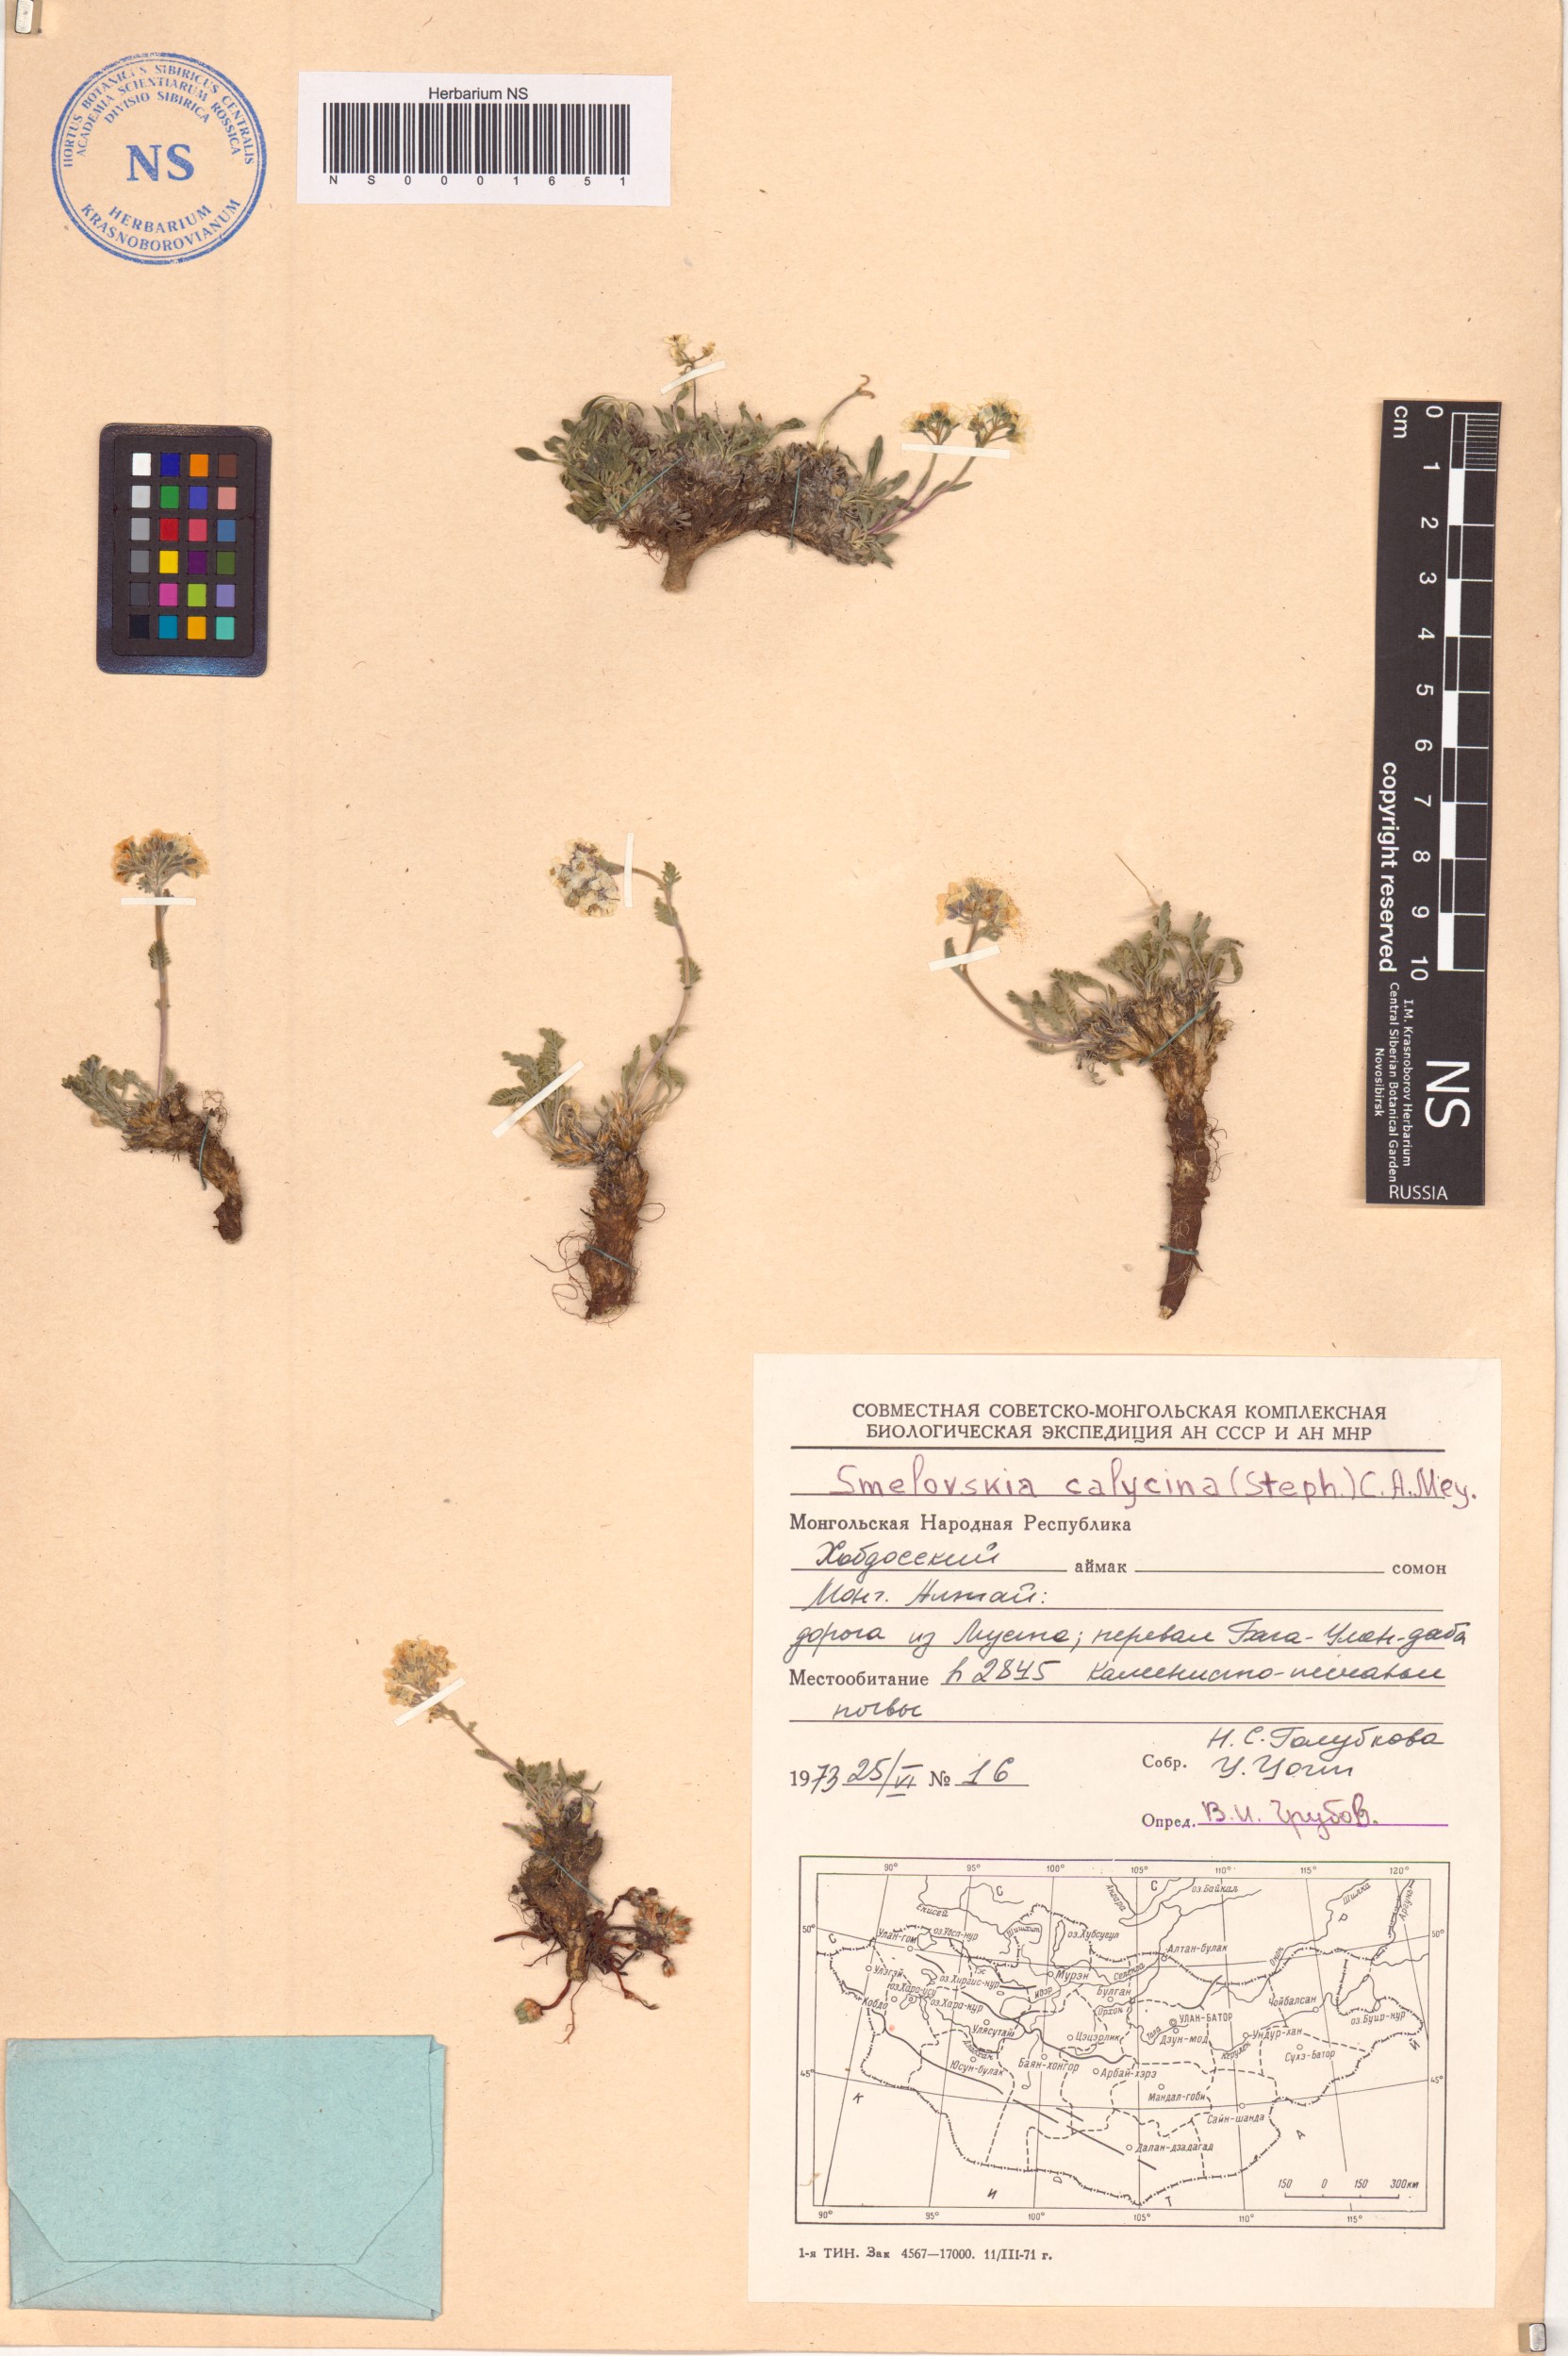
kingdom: Plantae
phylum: Tracheophyta
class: Magnoliopsida
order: Brassicales
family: Brassicaceae
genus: Smelowskia
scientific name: Smelowskia calycina
